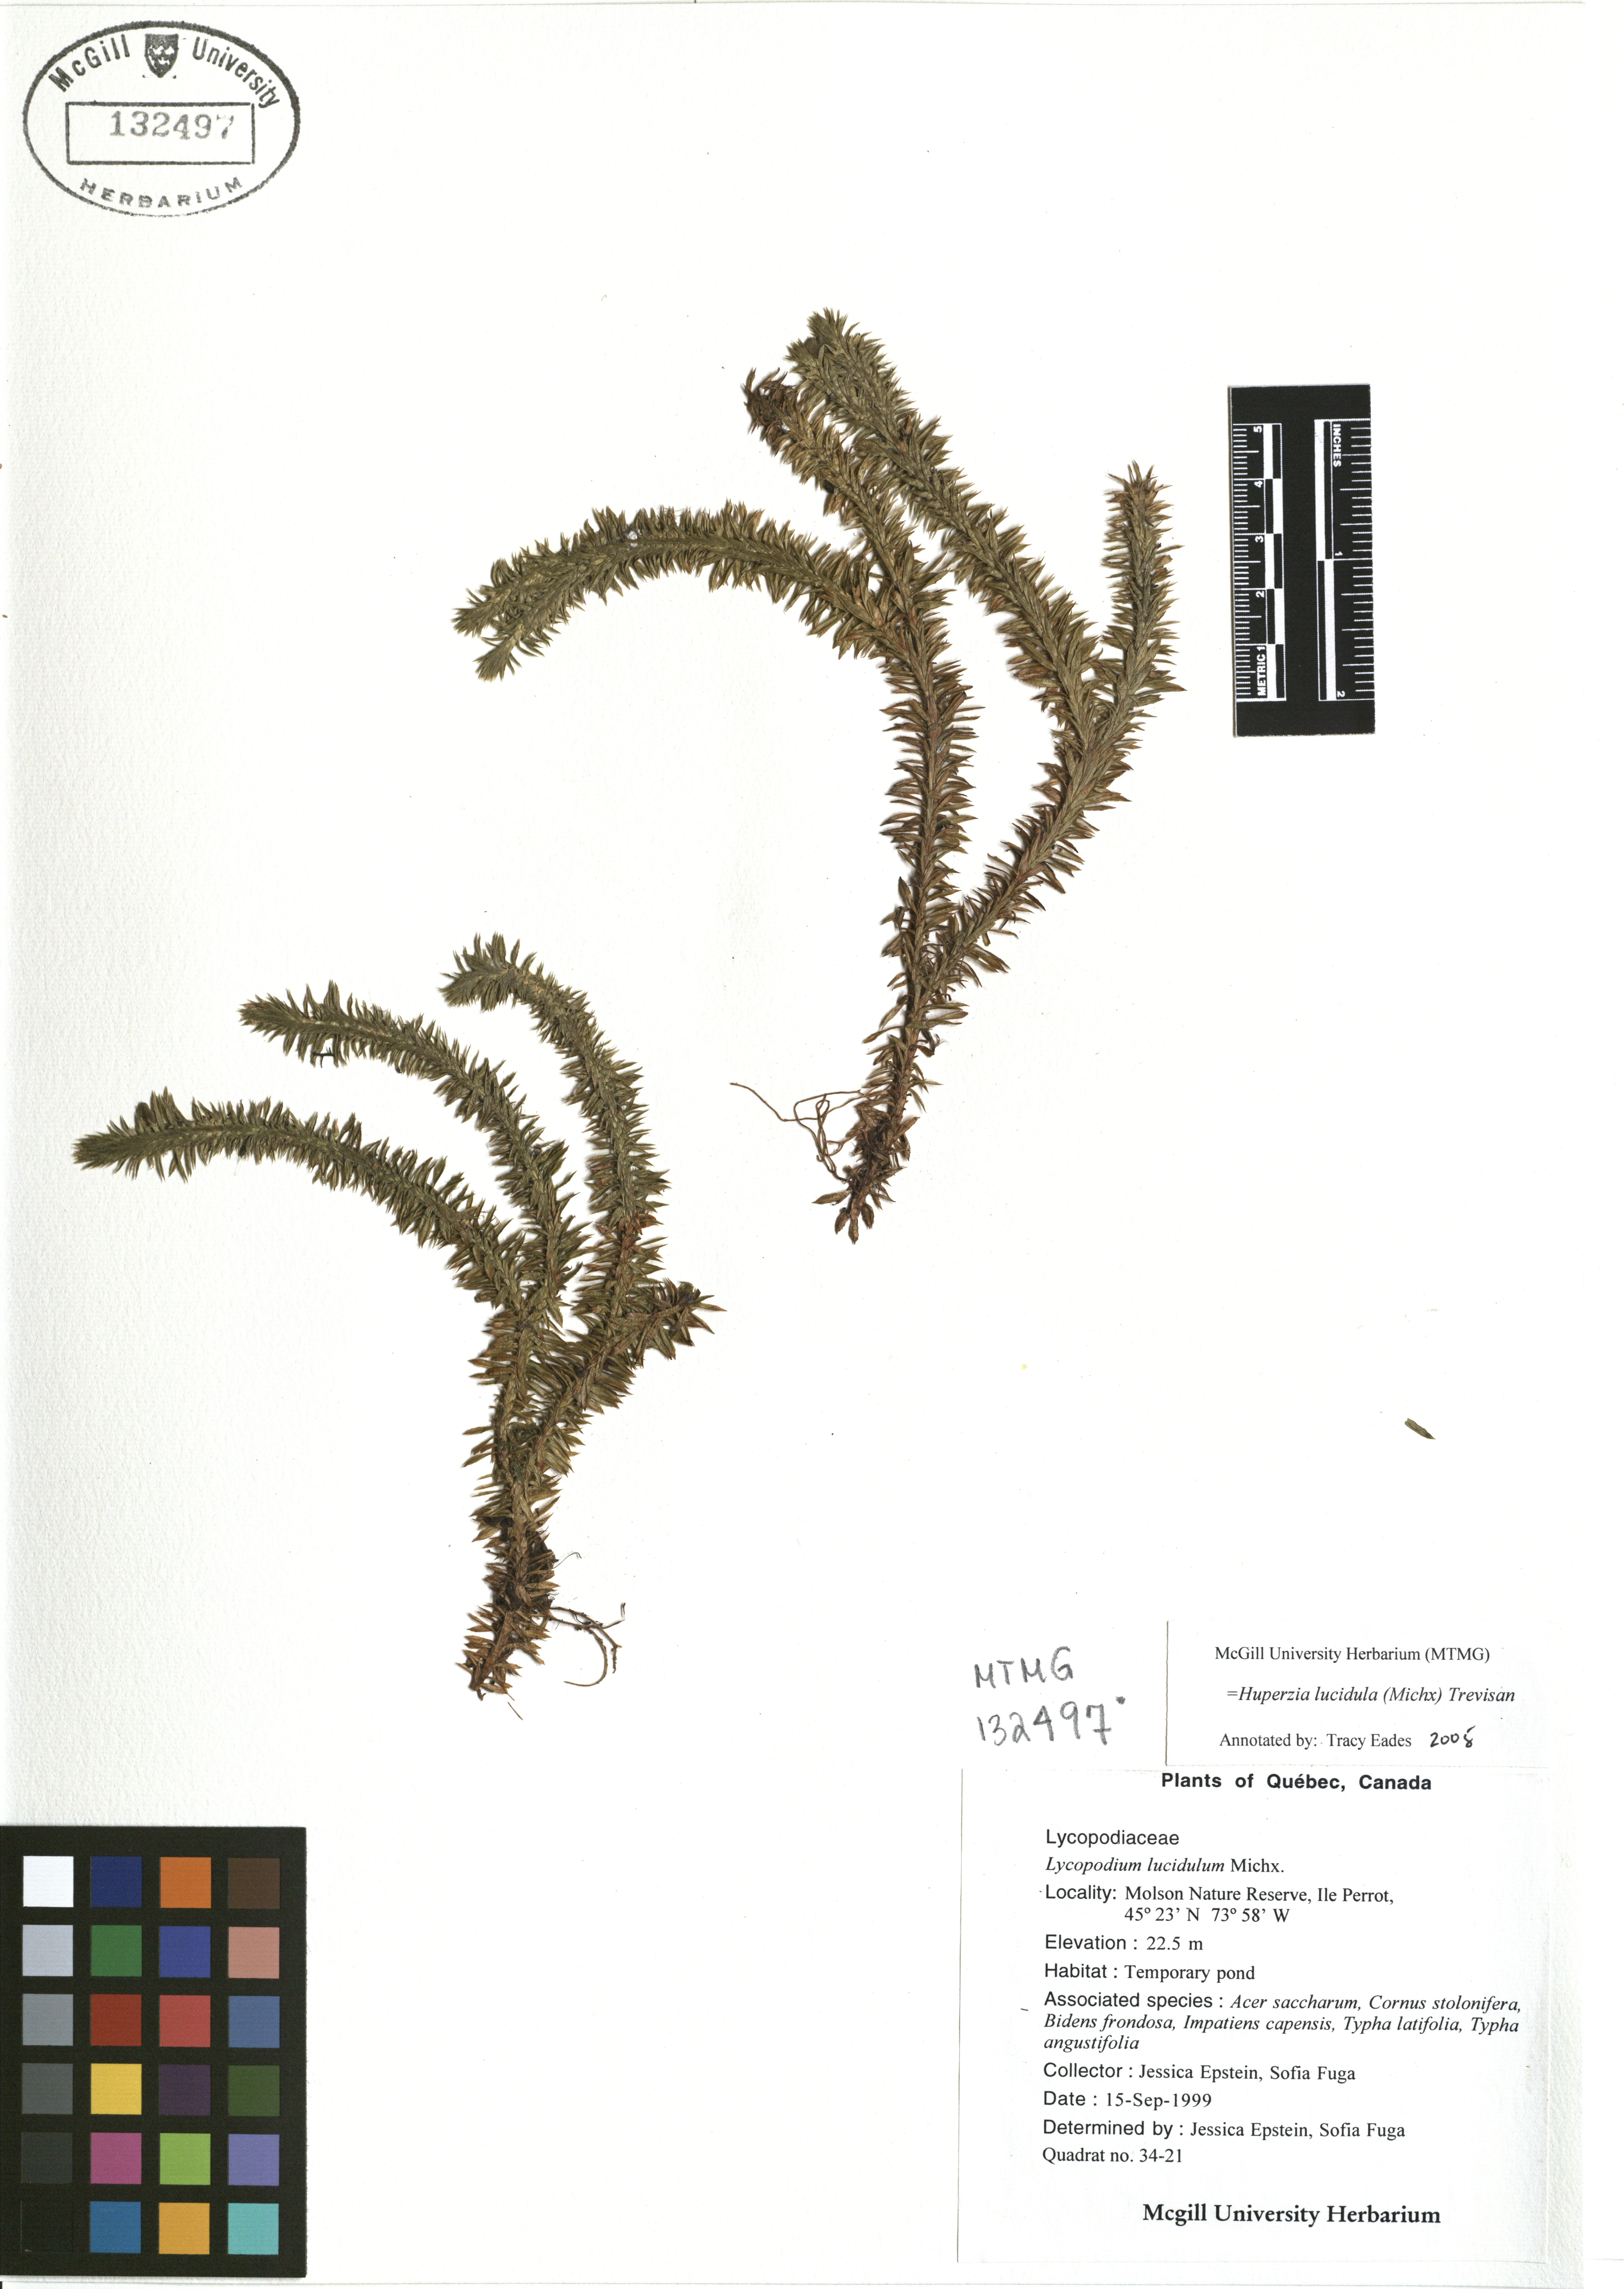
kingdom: Plantae
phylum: Tracheophyta
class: Lycopodiopsida
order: Lycopodiales
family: Lycopodiaceae
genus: Huperzia
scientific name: Huperzia lucidula
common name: Shining clubmoss
